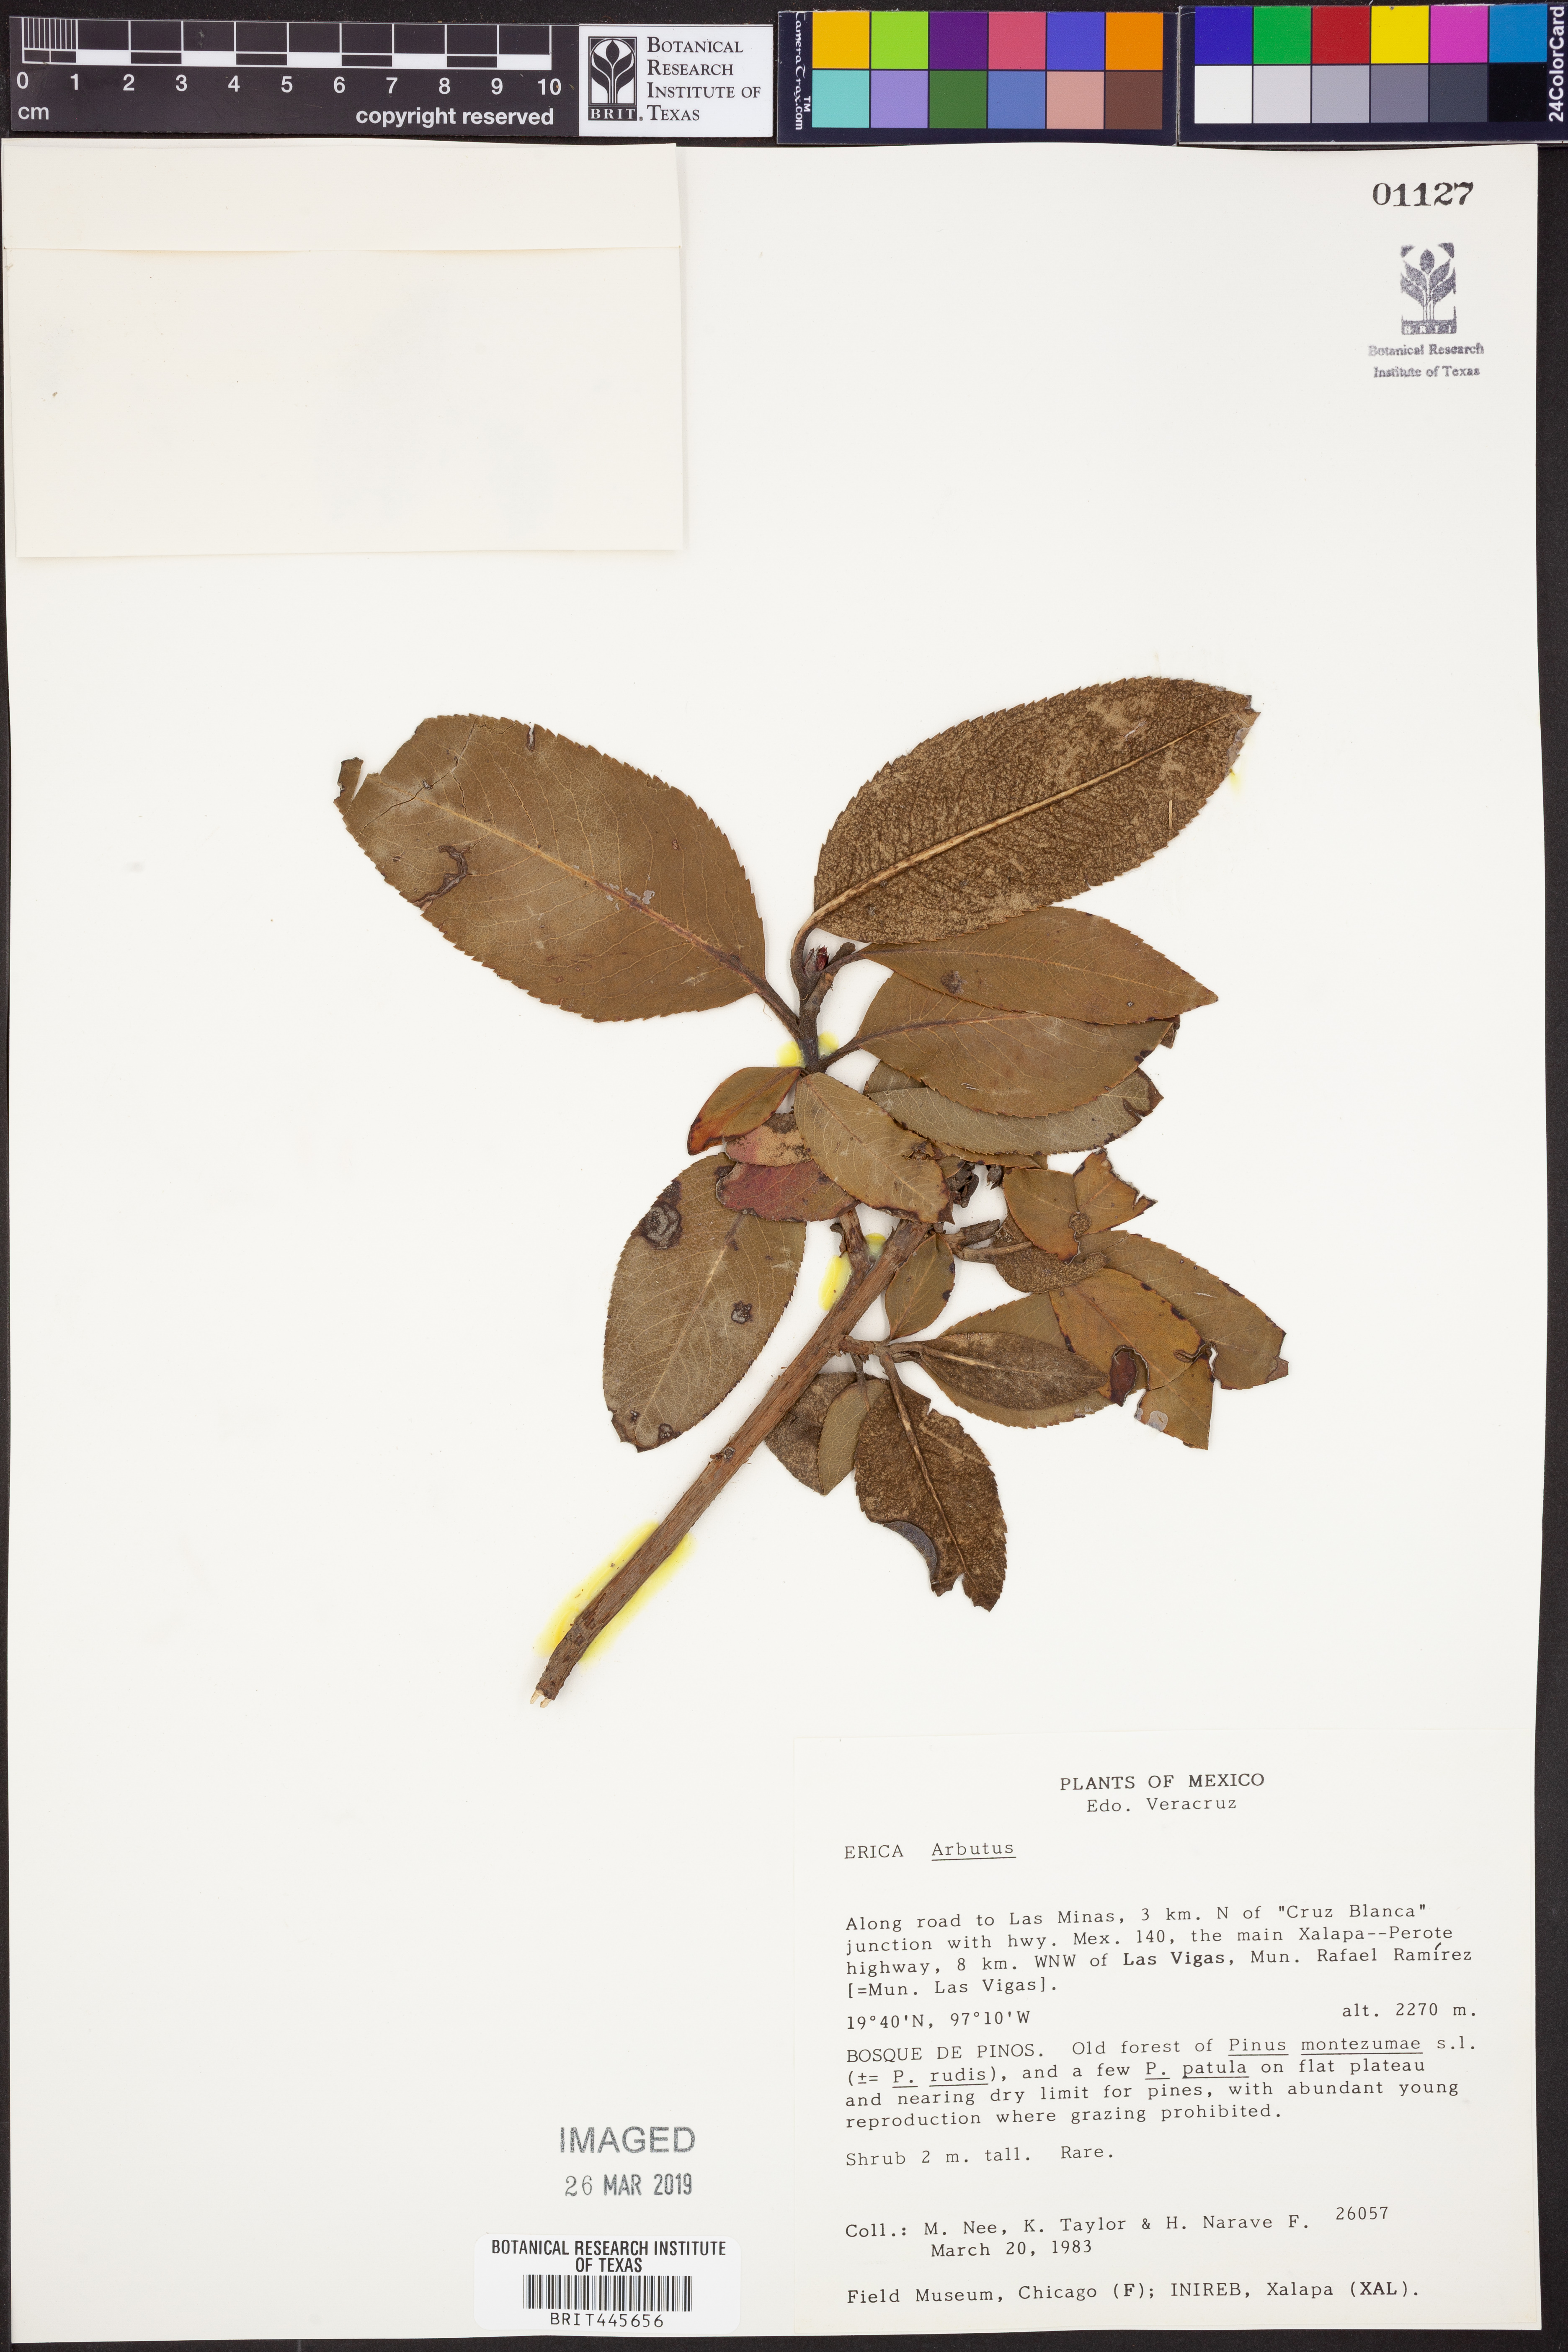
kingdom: Plantae
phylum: Tracheophyta
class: Magnoliopsida
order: Ericales
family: Ericaceae
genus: Arbutus
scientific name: Arbutus
